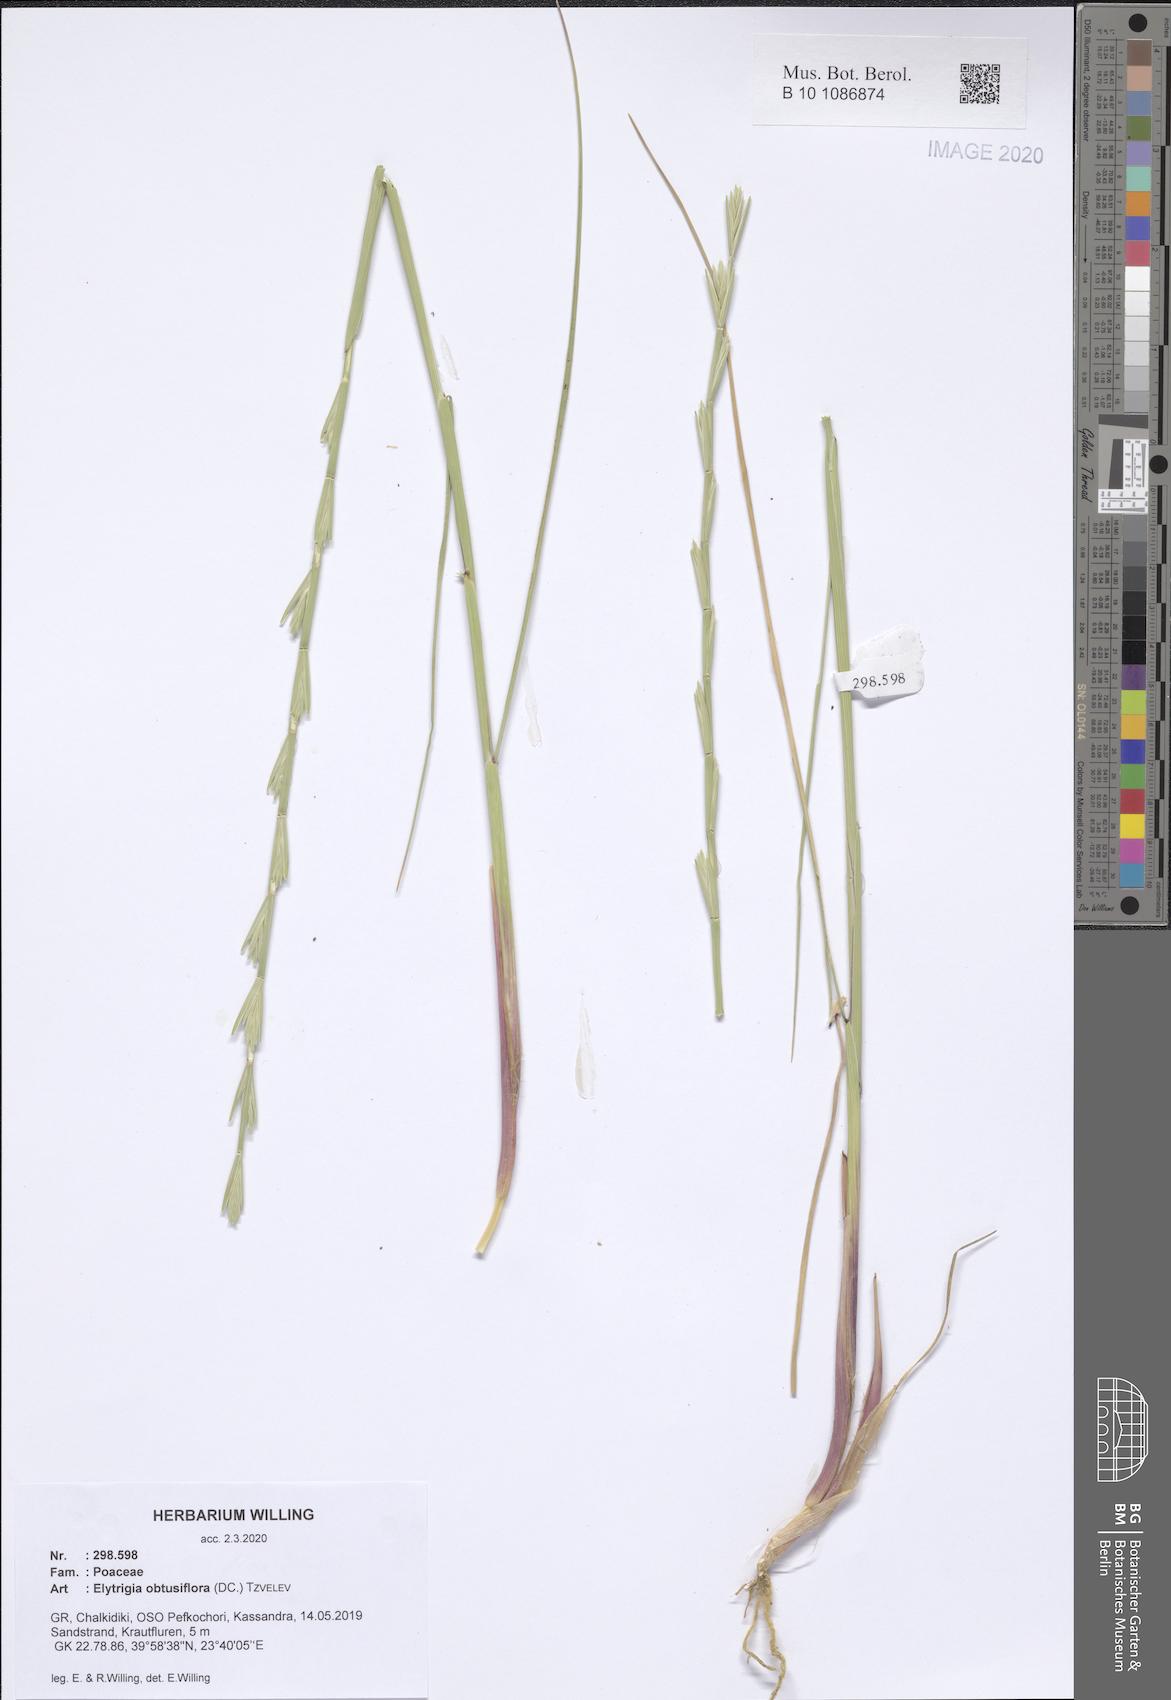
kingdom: Plantae
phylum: Tracheophyta
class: Liliopsida
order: Poales
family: Poaceae
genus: Thinopyrum
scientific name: Thinopyrum obtusiflorum
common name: Eurasian quackgrass
